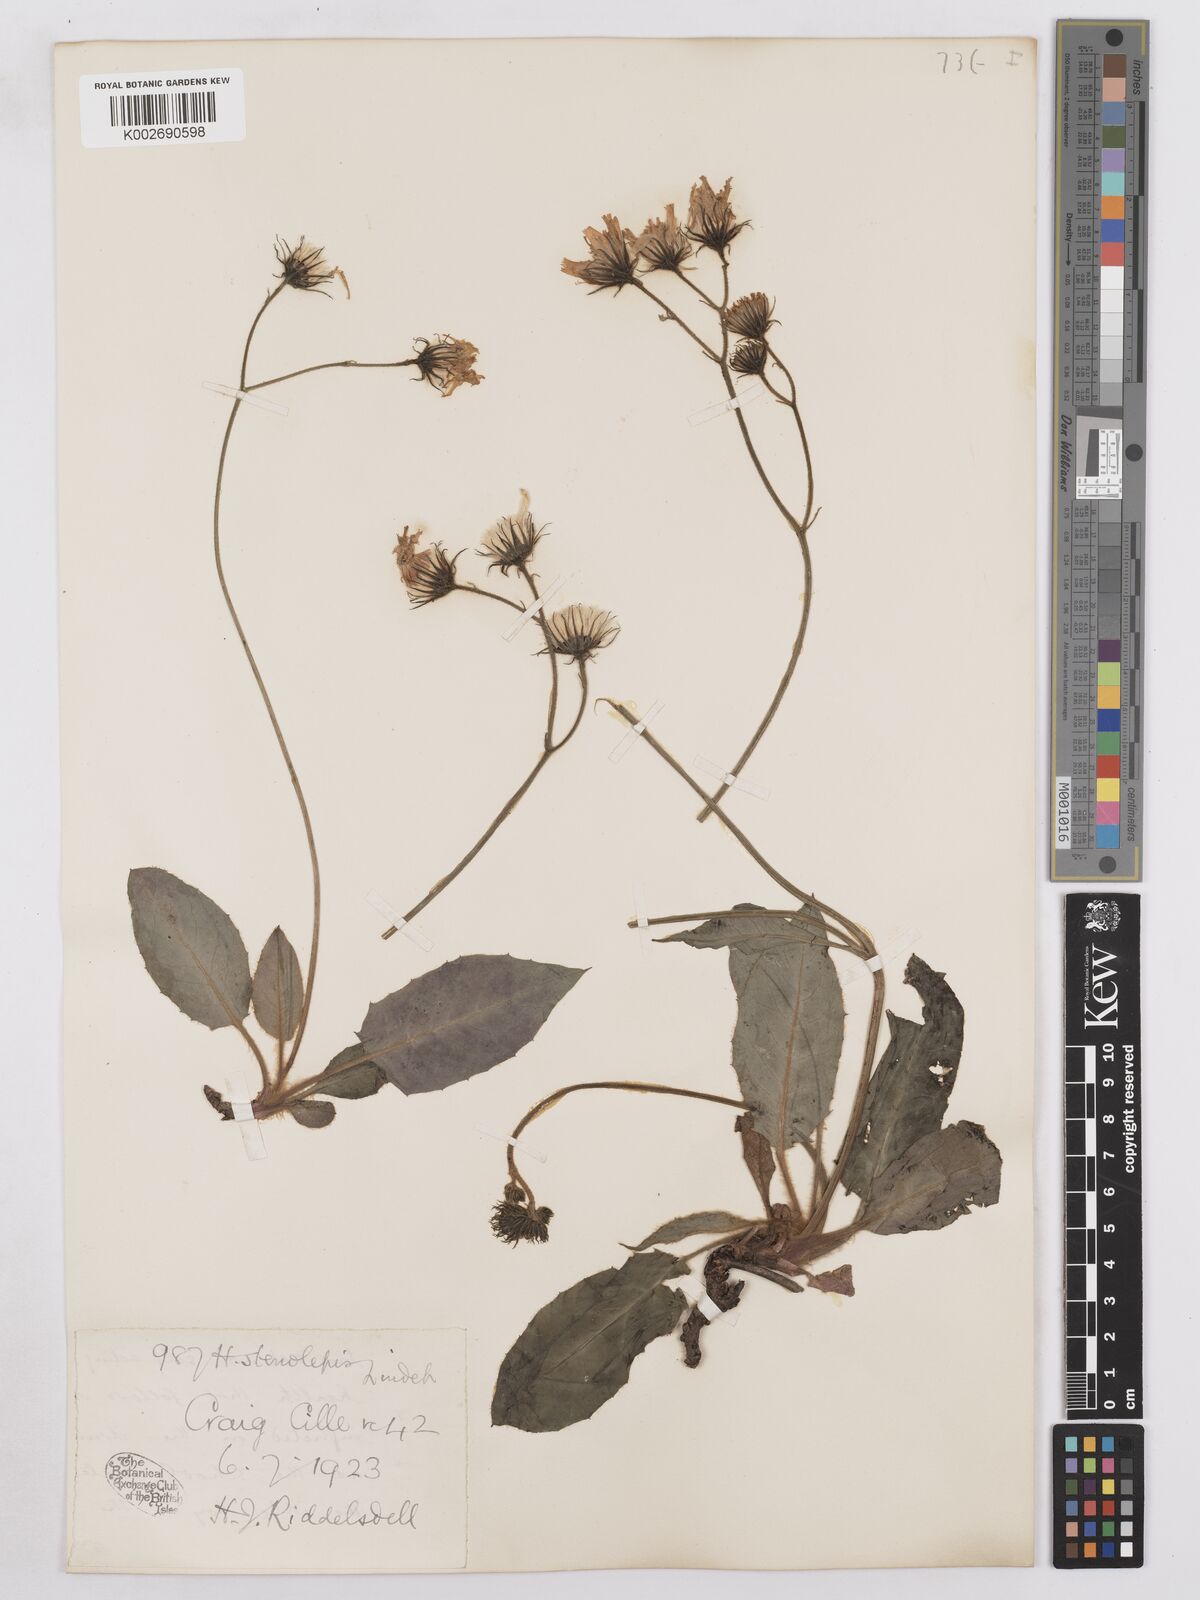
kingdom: Plantae
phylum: Tracheophyta
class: Magnoliopsida
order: Asterales
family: Asteraceae
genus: Hieracium
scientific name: Hieracium subbritannicum
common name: Limestone hawkweed
